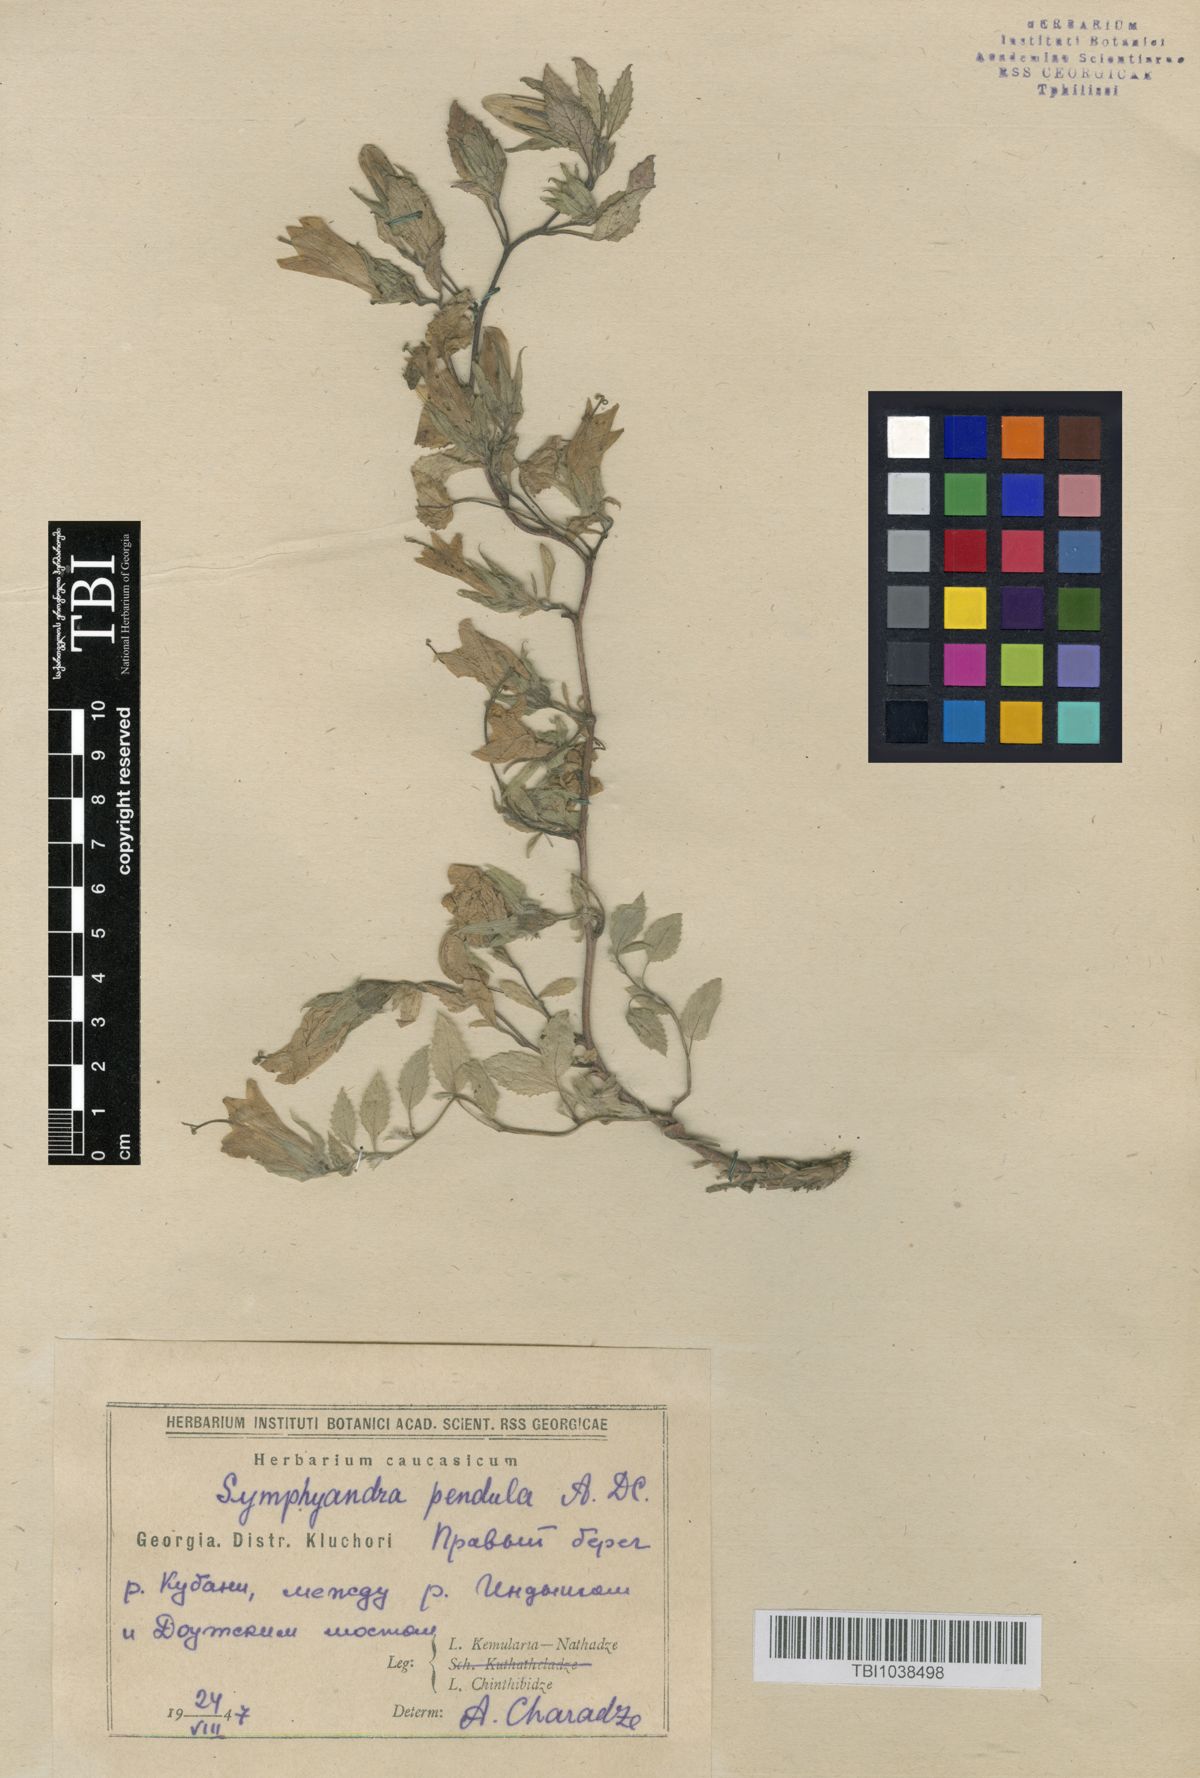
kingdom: Plantae
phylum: Tracheophyta
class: Magnoliopsida
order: Asterales
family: Campanulaceae
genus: Campanula
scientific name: Campanula pendula
